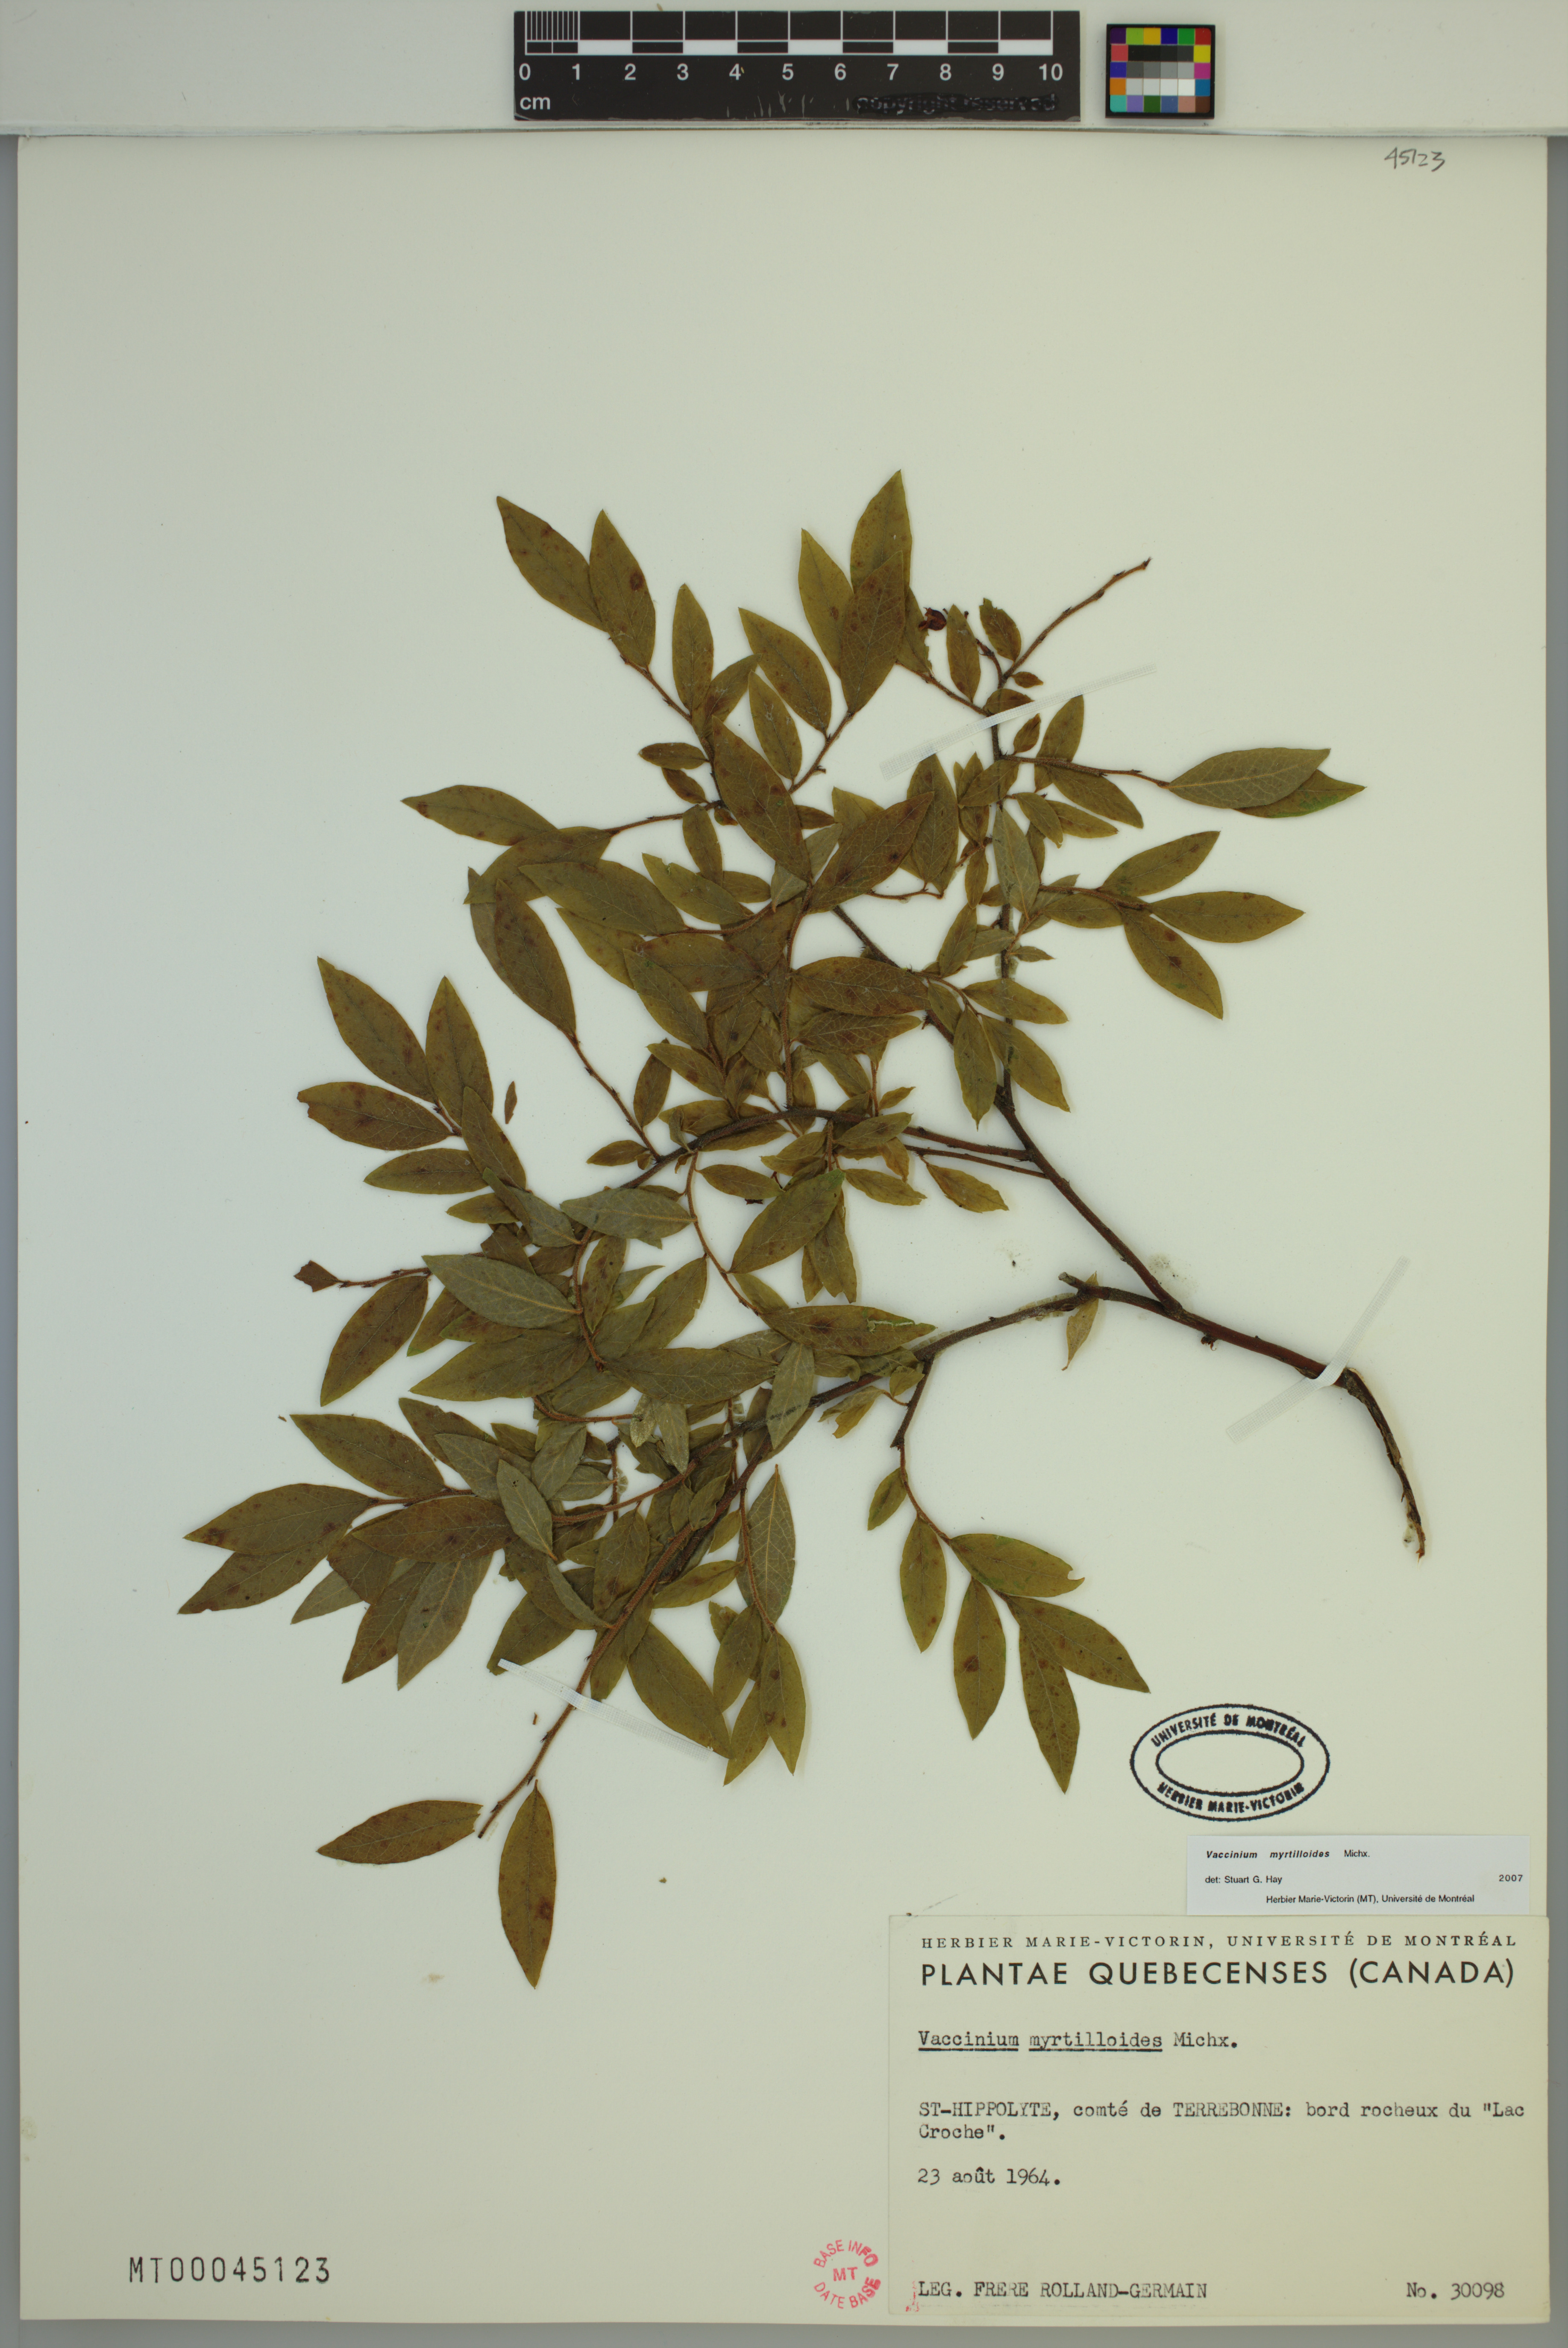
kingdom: Plantae
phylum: Tracheophyta
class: Magnoliopsida
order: Ericales
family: Ericaceae
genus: Vaccinium
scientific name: Vaccinium myrtilloides
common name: Canada blueberry
